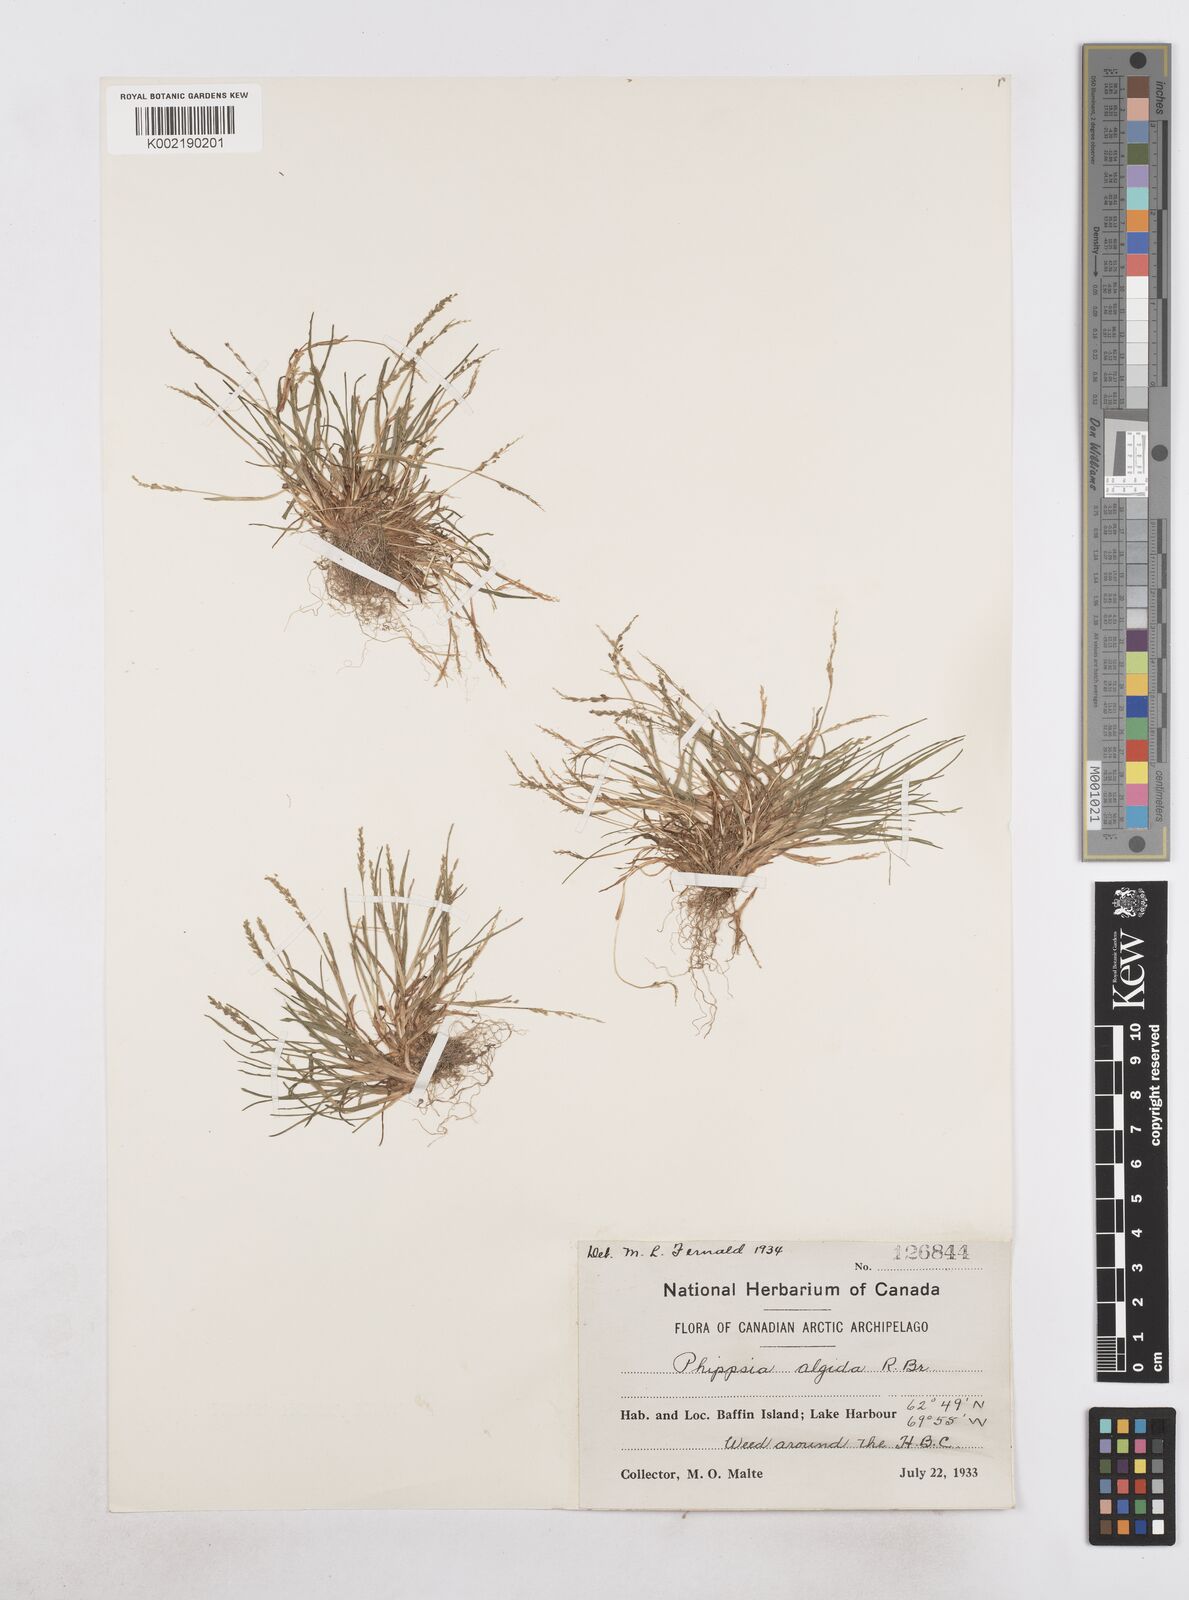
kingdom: Plantae
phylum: Tracheophyta
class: Liliopsida
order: Poales
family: Poaceae
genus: Phippsia
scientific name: Phippsia algida
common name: Ice grass
